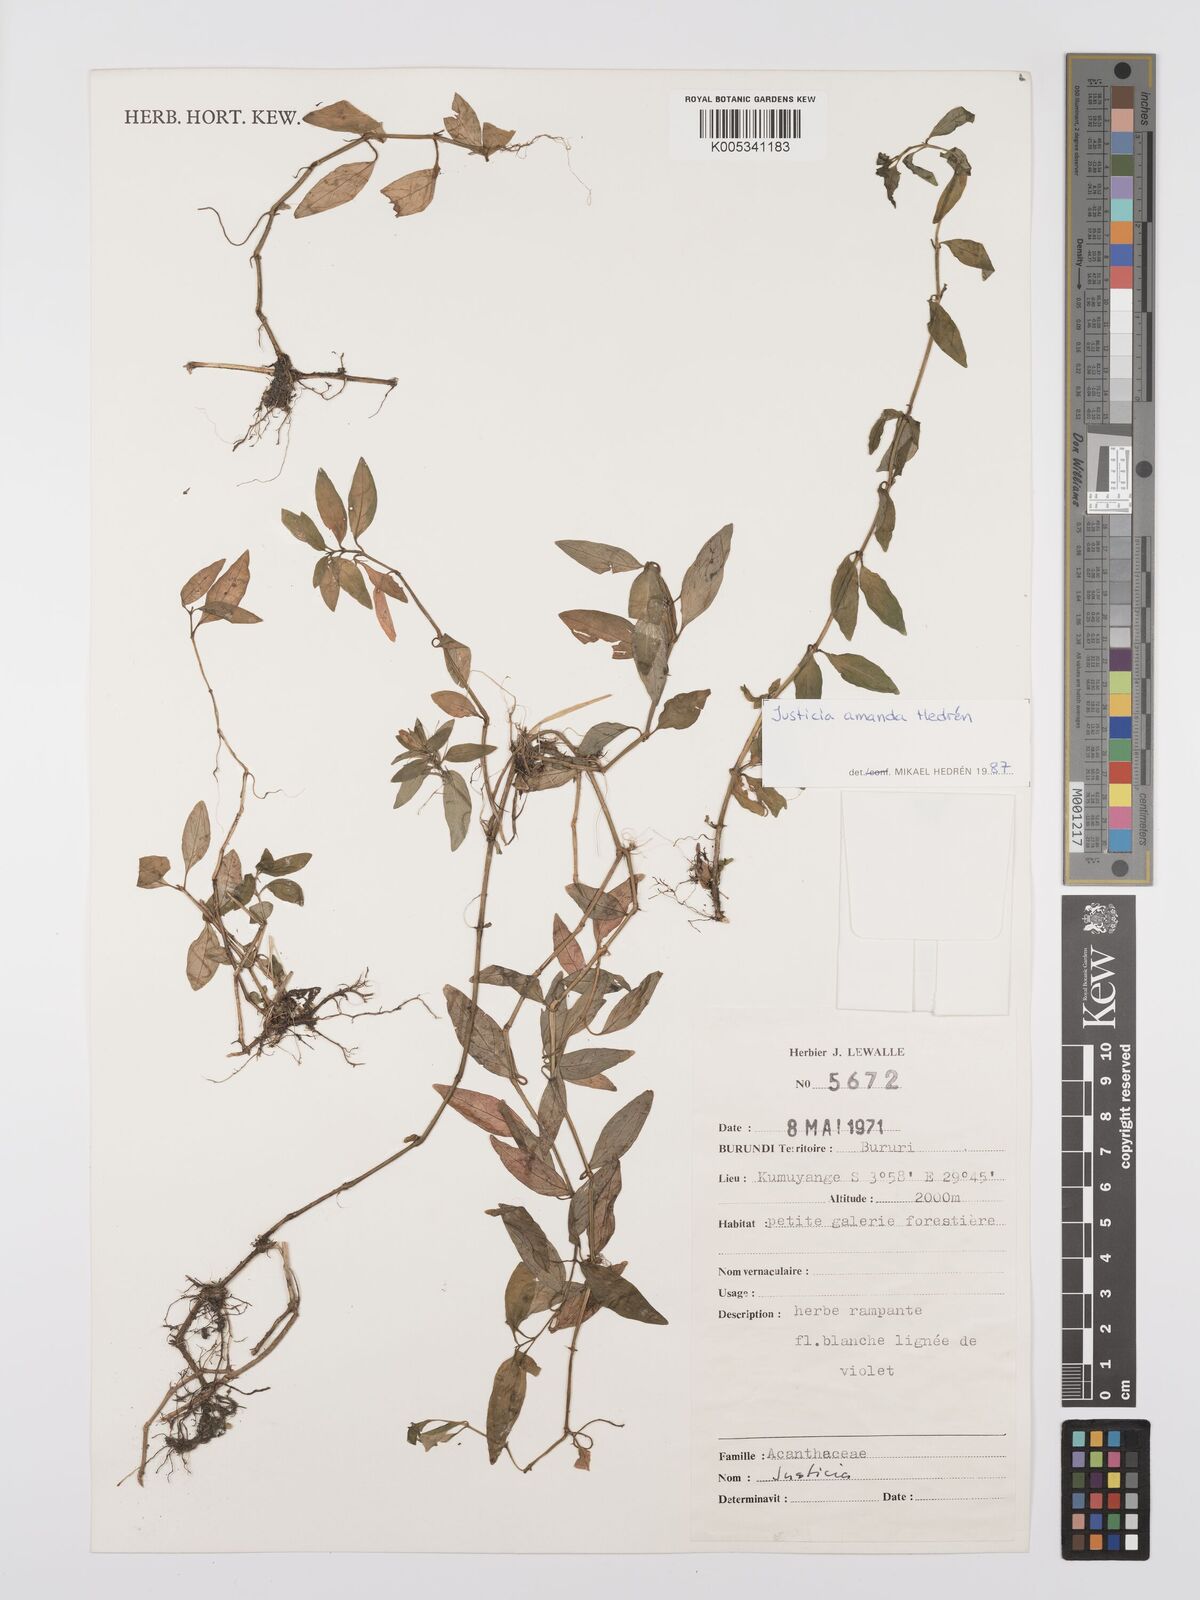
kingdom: Plantae
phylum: Tracheophyta
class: Magnoliopsida
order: Lamiales
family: Acanthaceae
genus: Justicia
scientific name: Justicia amanda
